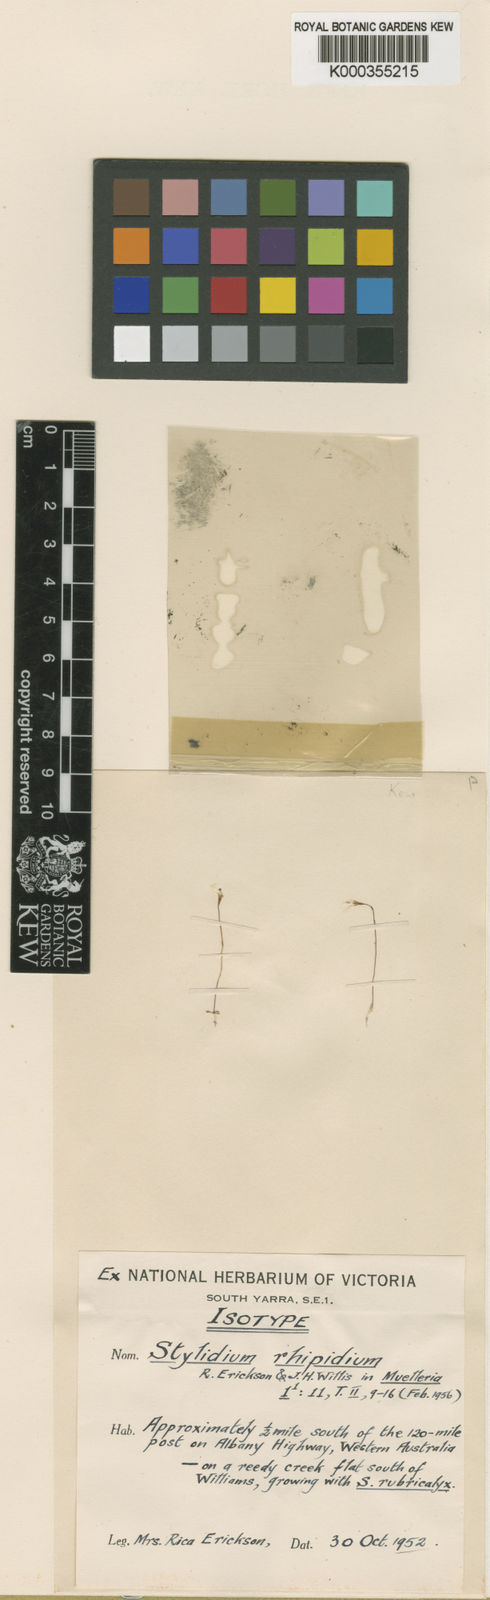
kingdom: Plantae
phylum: Tracheophyta
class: Magnoliopsida
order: Asterales
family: Stylidiaceae
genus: Stylidium
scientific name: Stylidium rhipidium
